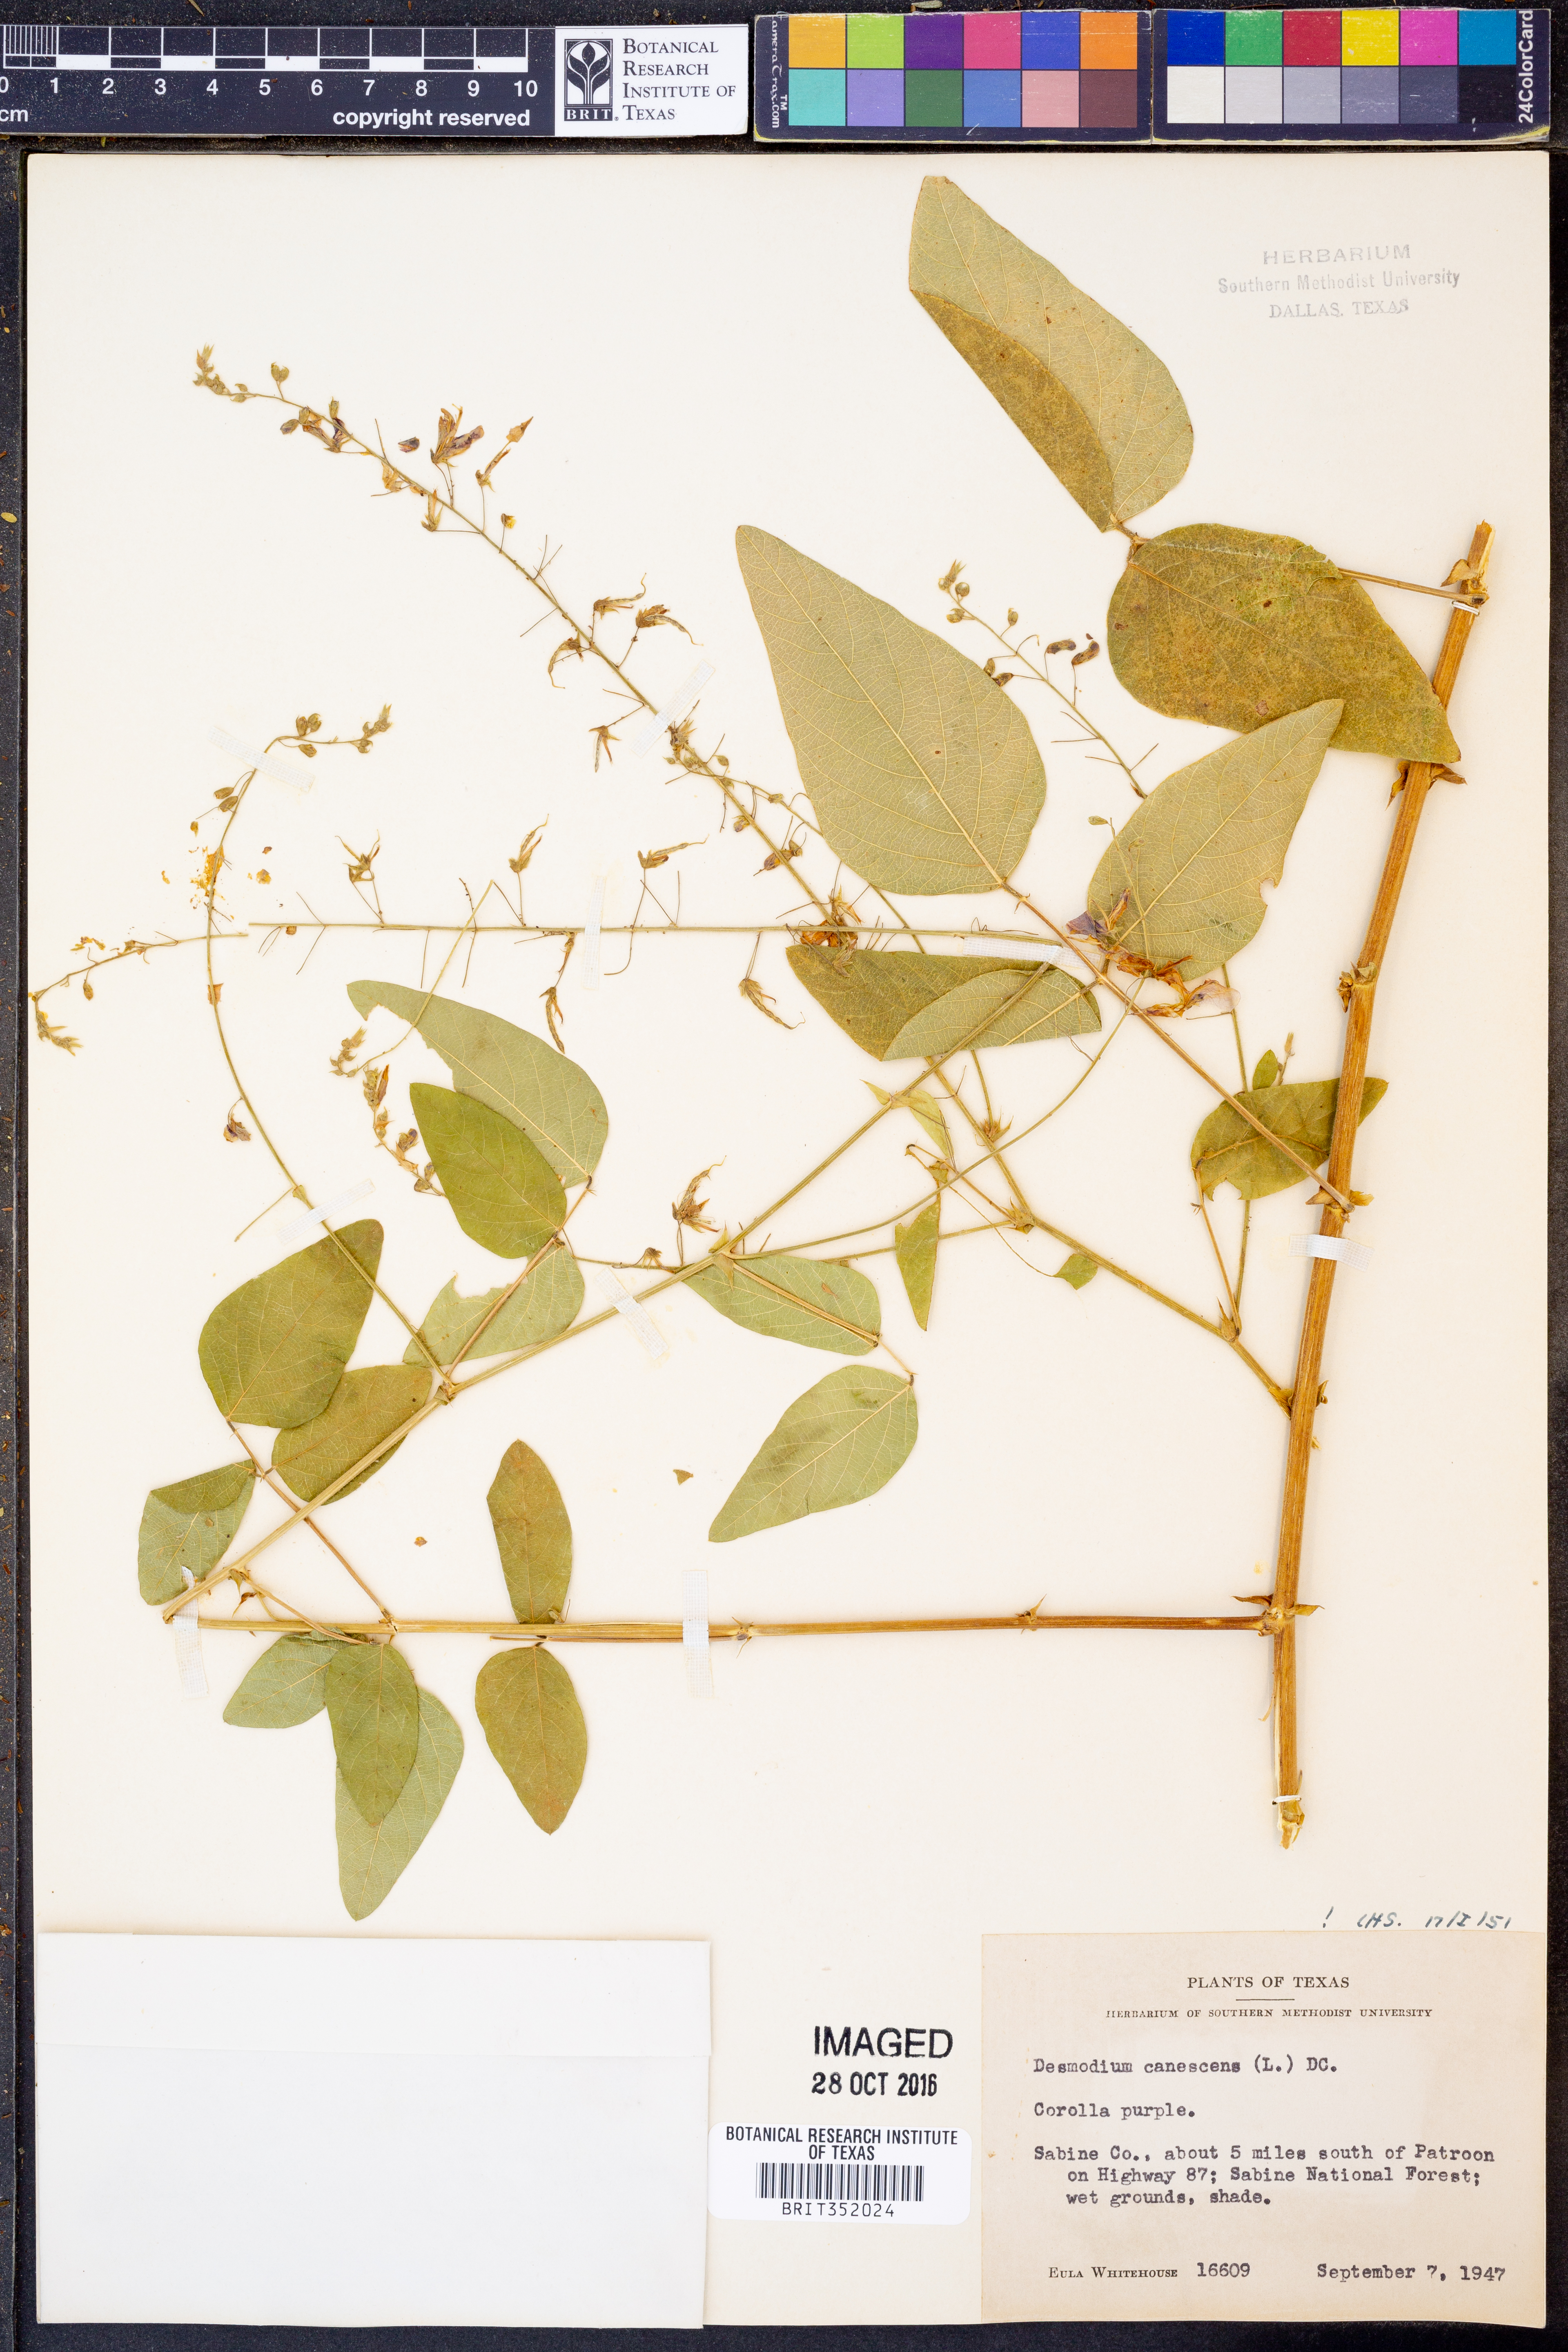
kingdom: Plantae
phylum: Tracheophyta
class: Magnoliopsida
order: Fabales
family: Fabaceae
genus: Desmodium
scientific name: Desmodium canescens
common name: Hoary tick-clover
